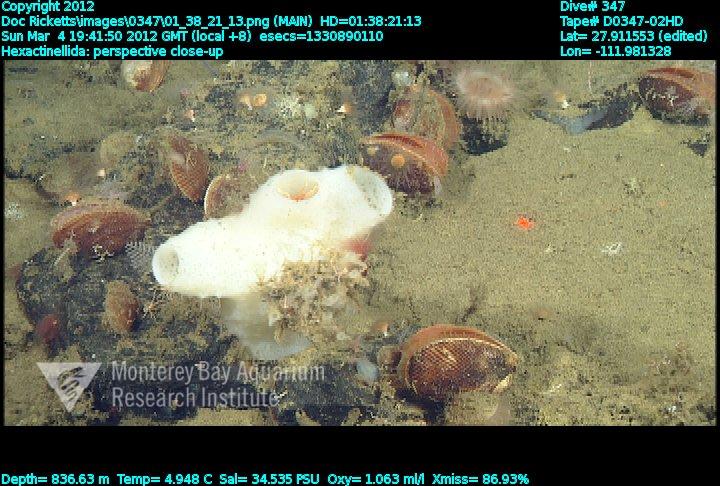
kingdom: Animalia
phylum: Porifera
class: Hexactinellida
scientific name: Hexactinellida
